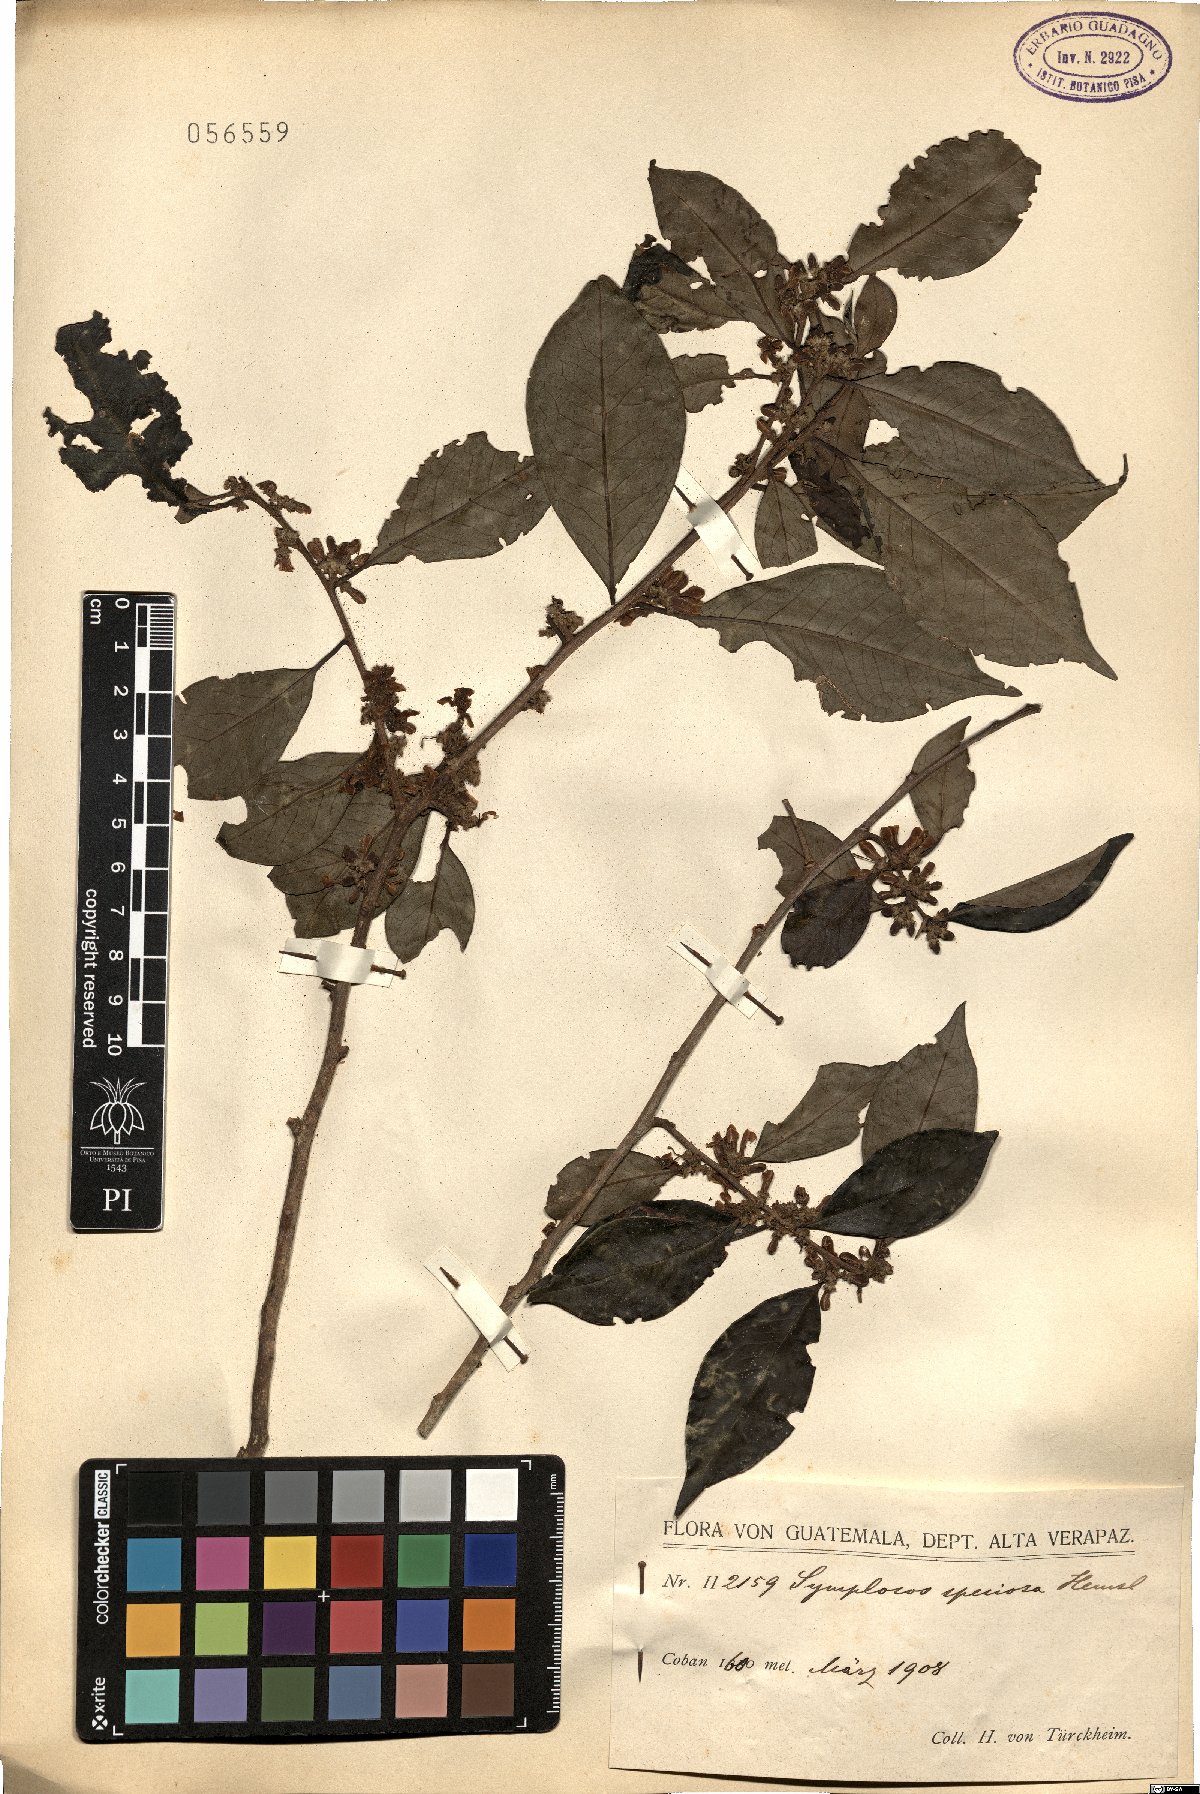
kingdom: Plantae
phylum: Tracheophyta
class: Magnoliopsida
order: Ericales
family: Symplocaceae
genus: Symplocos
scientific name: Symplocos speciosa
